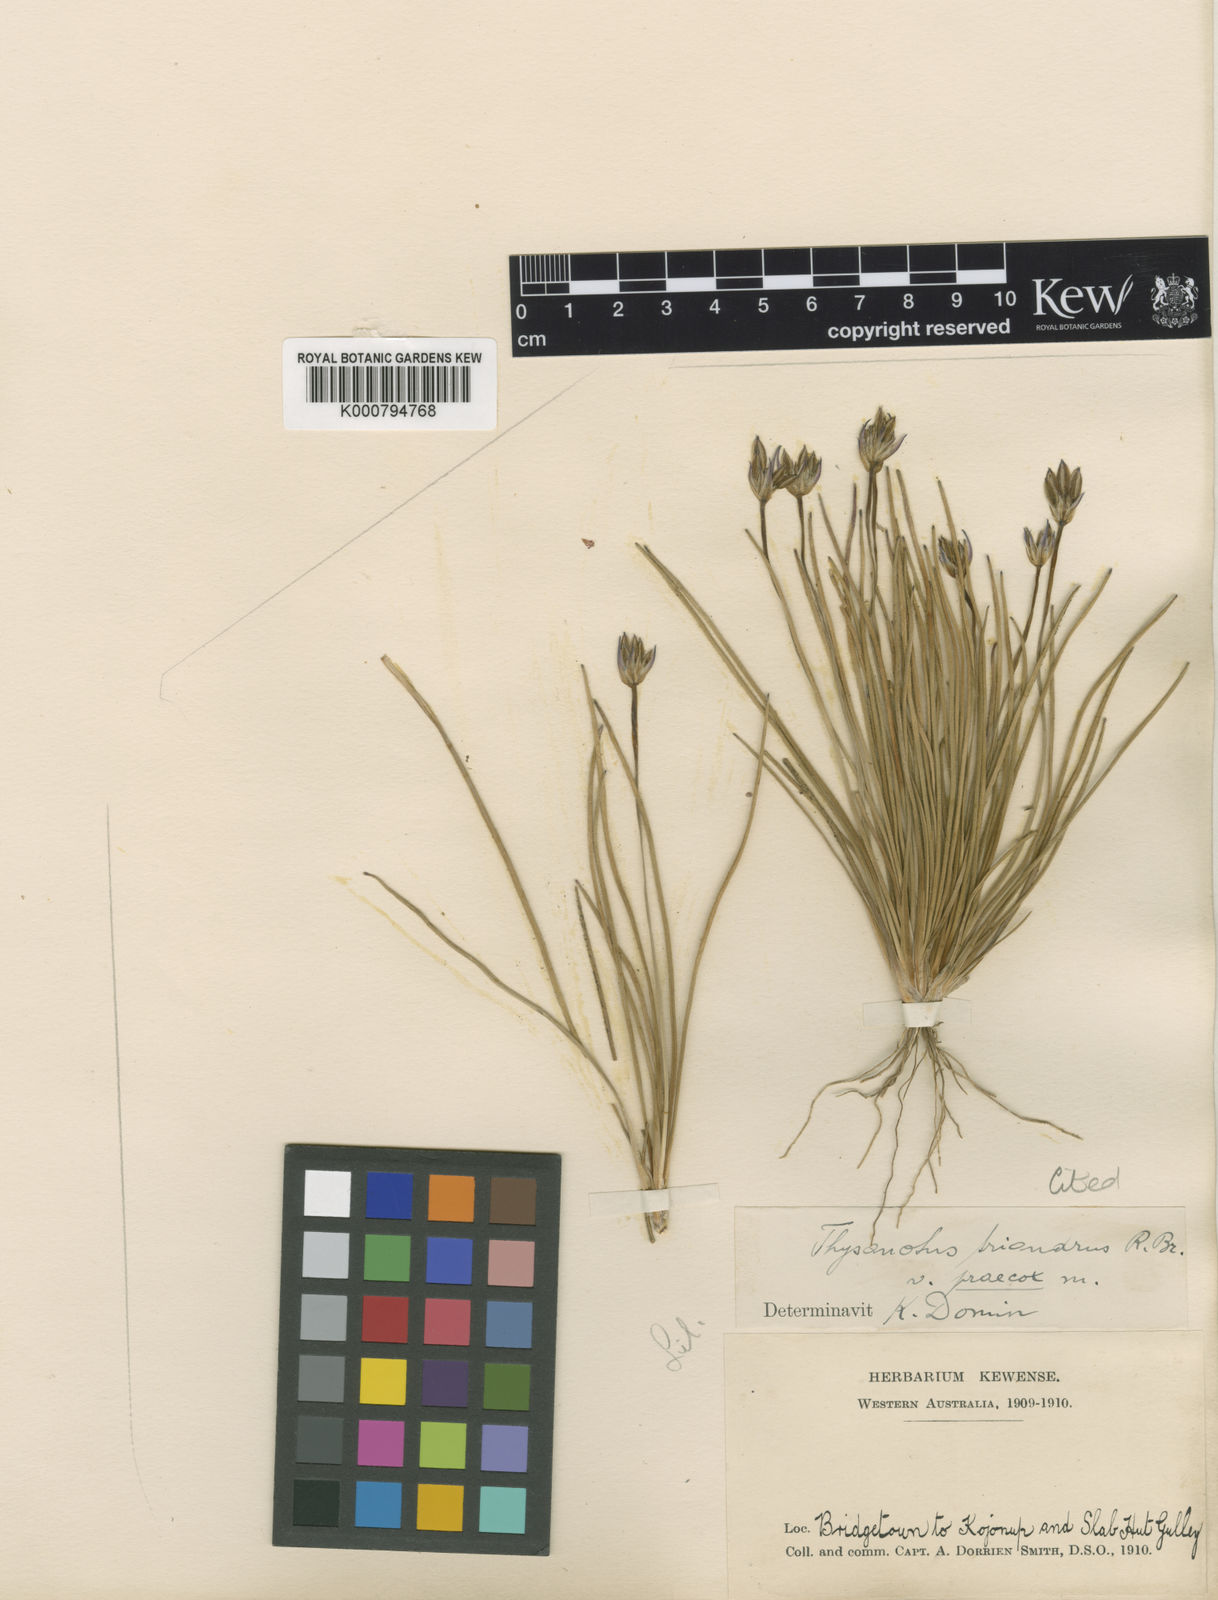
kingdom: Plantae
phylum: Tracheophyta
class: Liliopsida
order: Asparagales
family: Asparagaceae
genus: Thysanotus
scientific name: Thysanotus triandrus
